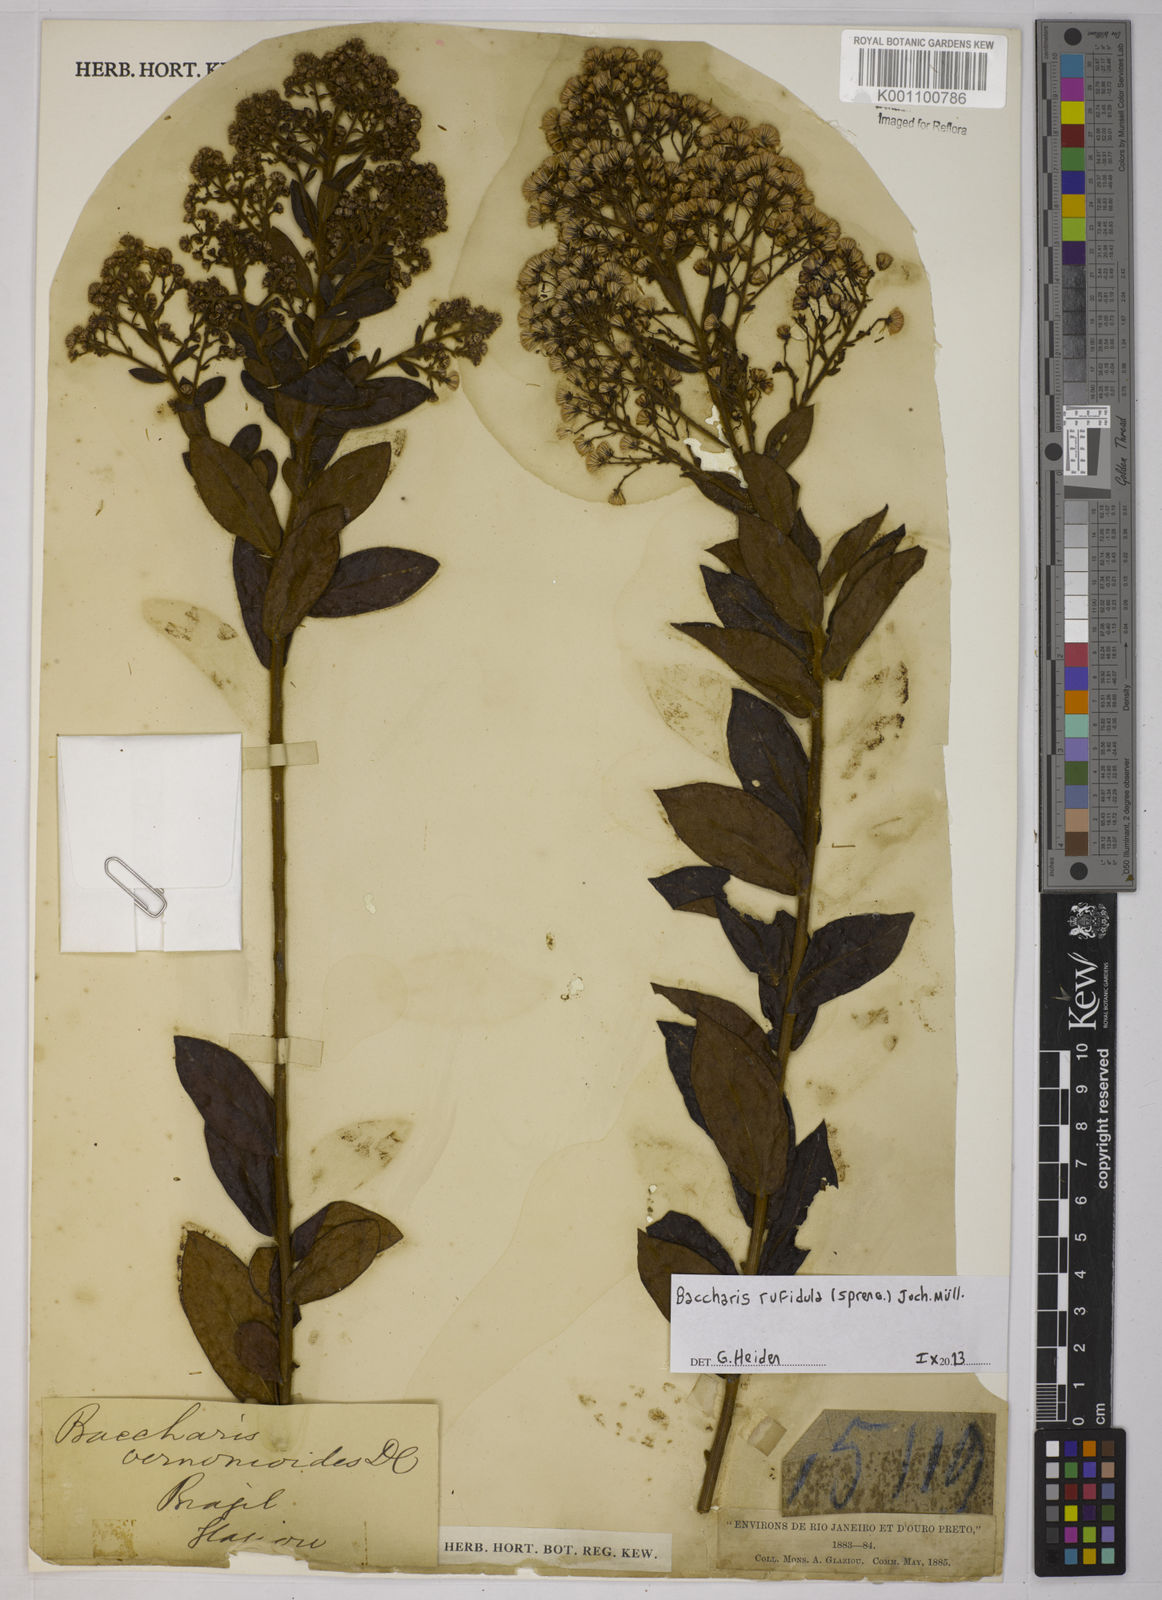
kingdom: Plantae
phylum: Tracheophyta
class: Magnoliopsida
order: Asterales
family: Asteraceae
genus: Baccharis
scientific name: Baccharis rufidula
